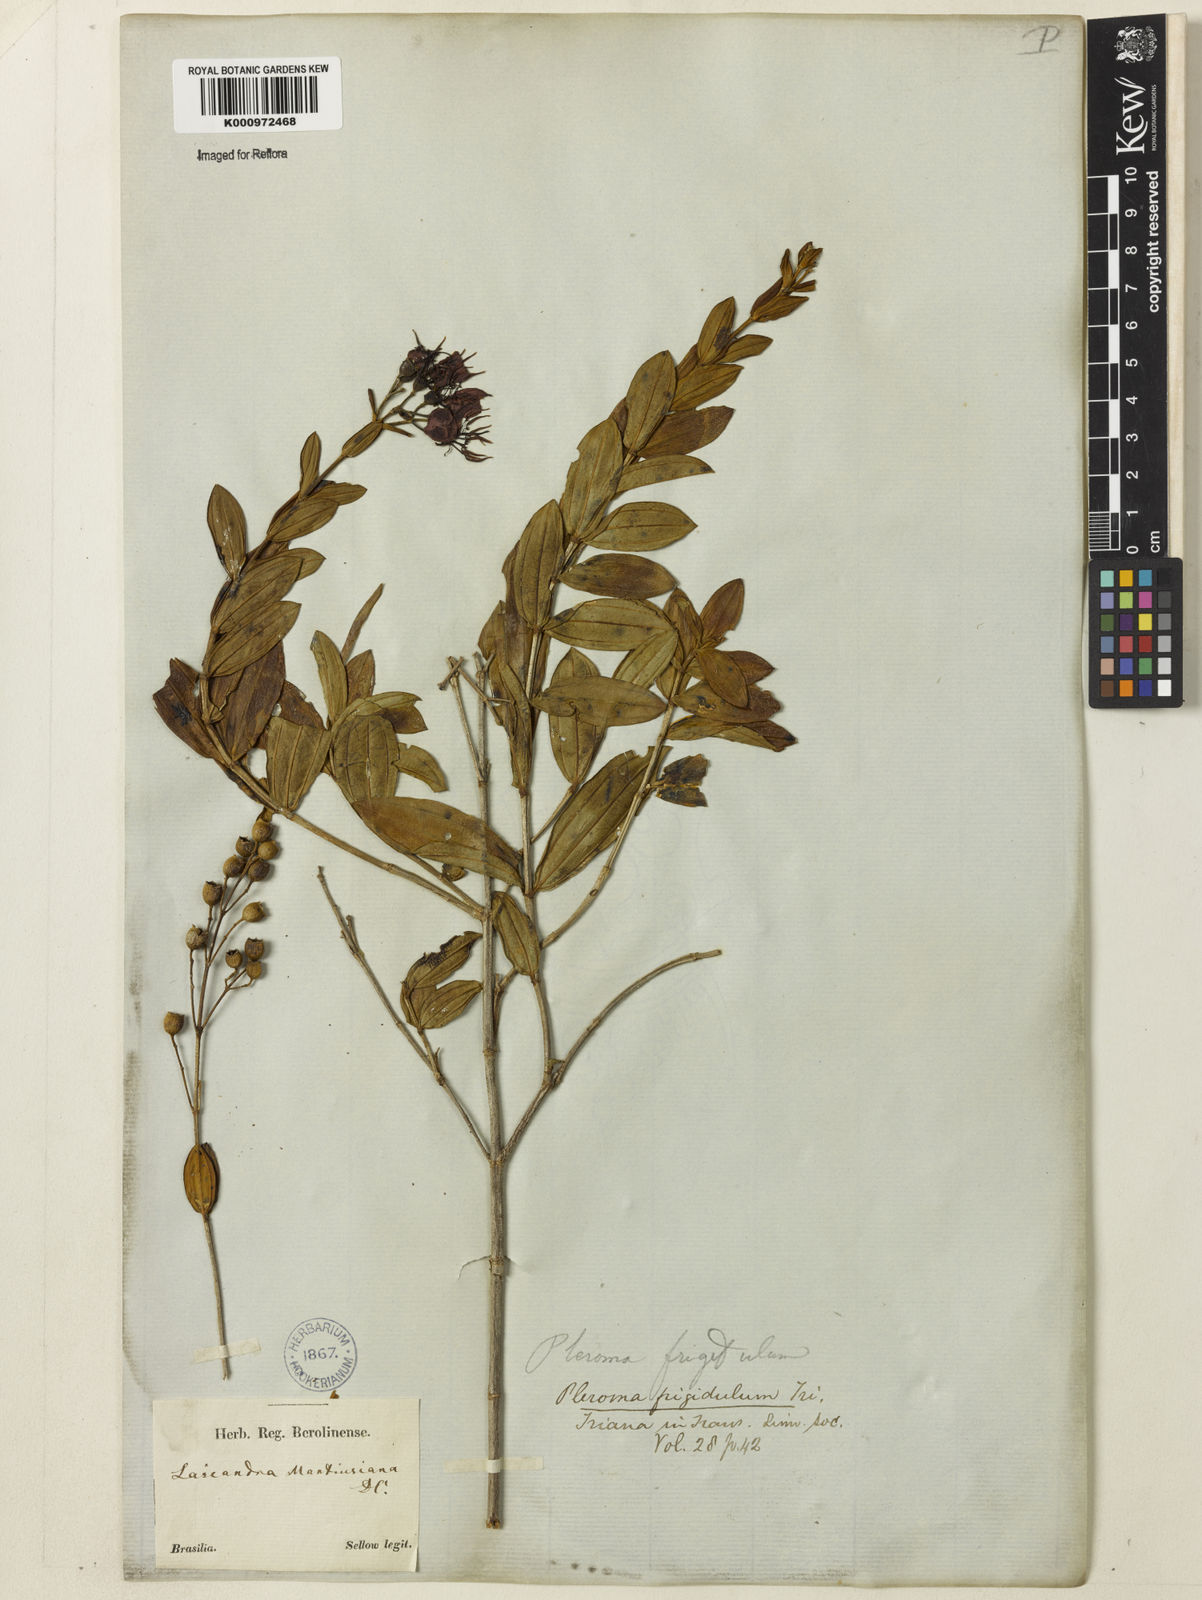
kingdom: Plantae
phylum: Tracheophyta
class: Magnoliopsida
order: Myrtales
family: Melastomataceae
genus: Pleroma
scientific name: Pleroma martiusianum
